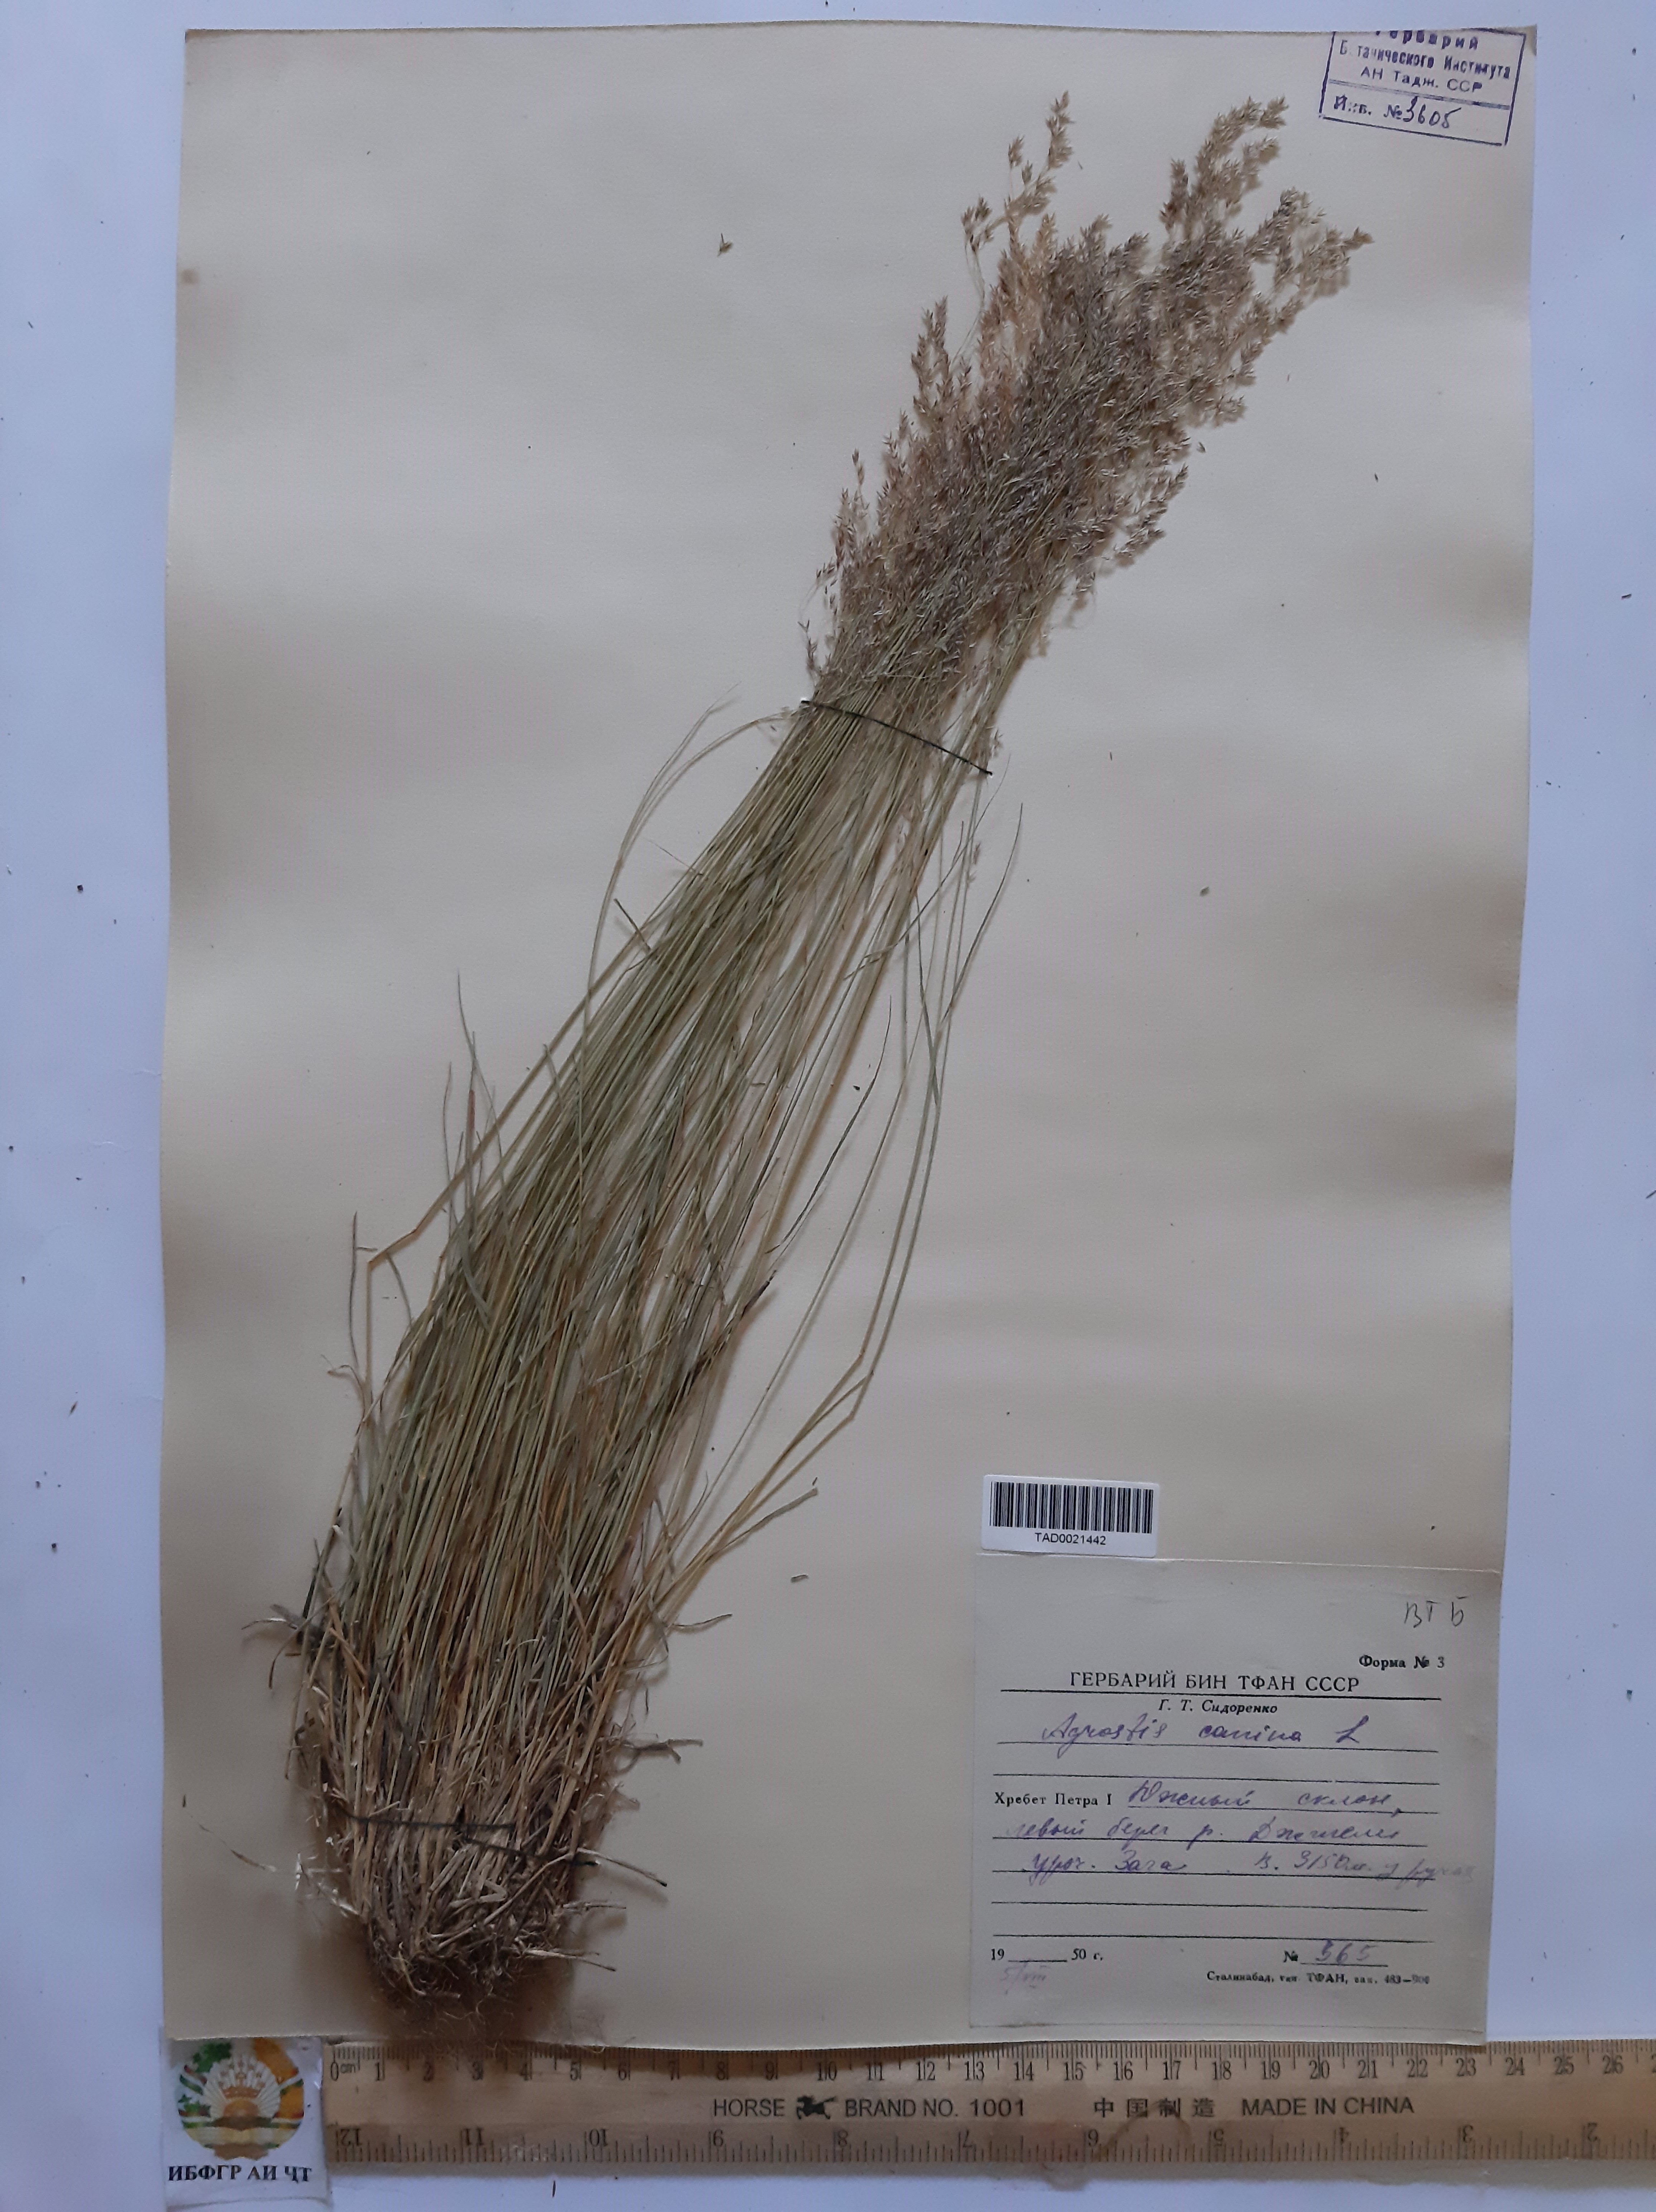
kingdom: Plantae
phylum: Tracheophyta
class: Liliopsida
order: Poales
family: Poaceae
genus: Agrostis
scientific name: Agrostis canina
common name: Velvet bent
